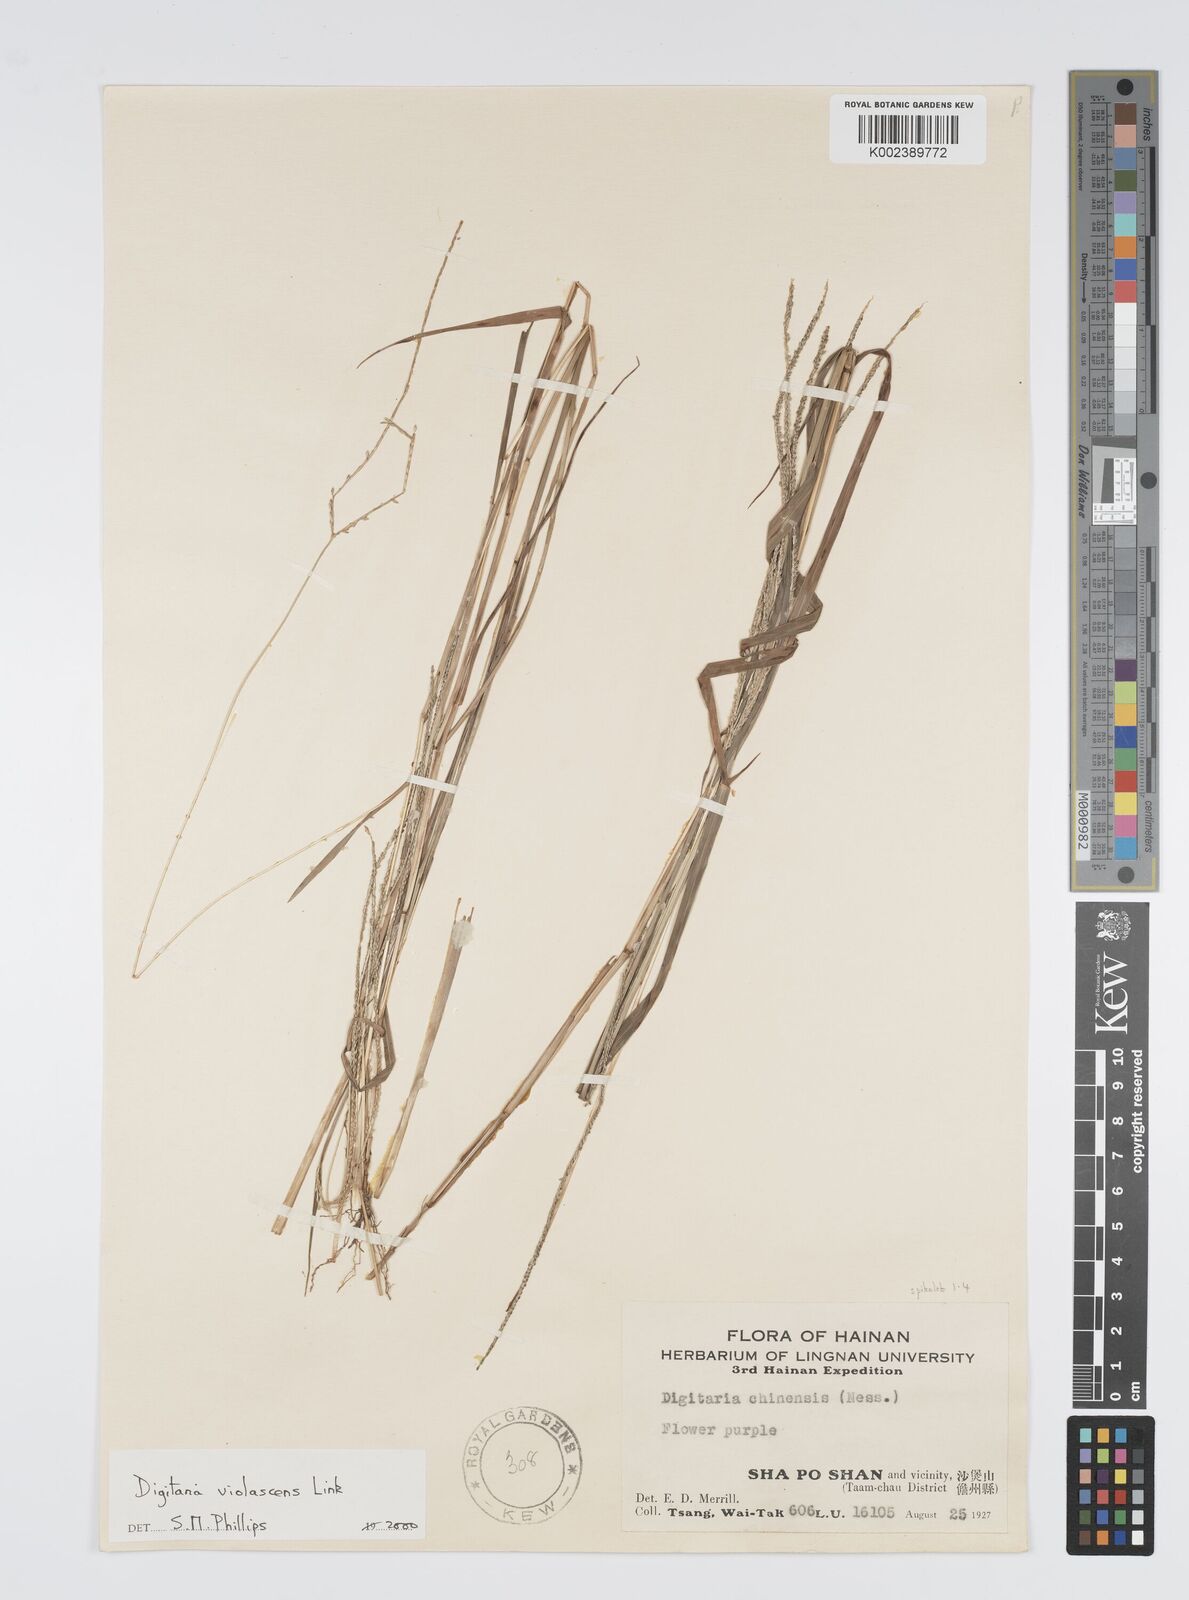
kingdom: Plantae
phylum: Tracheophyta
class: Liliopsida
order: Poales
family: Poaceae
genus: Digitaria
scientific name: Digitaria violascens
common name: Violet crabgrass
